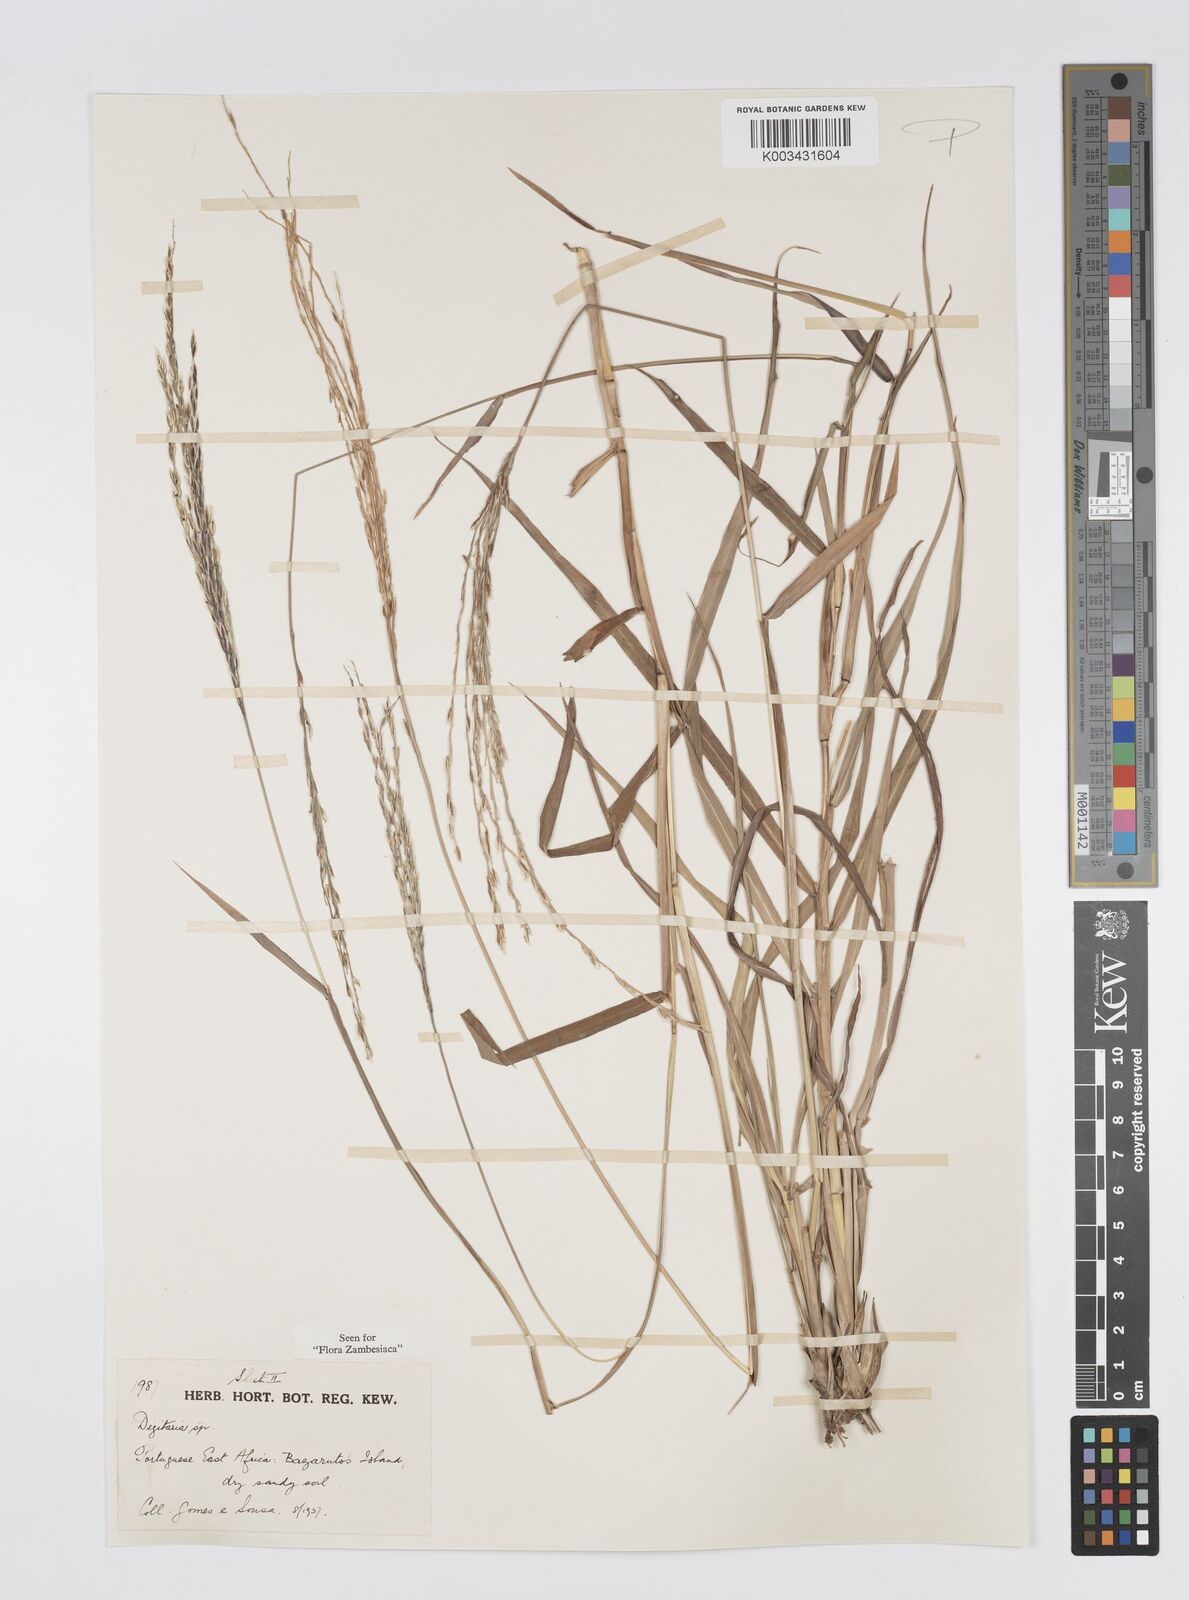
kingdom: Plantae
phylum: Tracheophyta
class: Liliopsida
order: Poales
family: Poaceae
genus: Digitaria
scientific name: Digitaria gymnostachys
